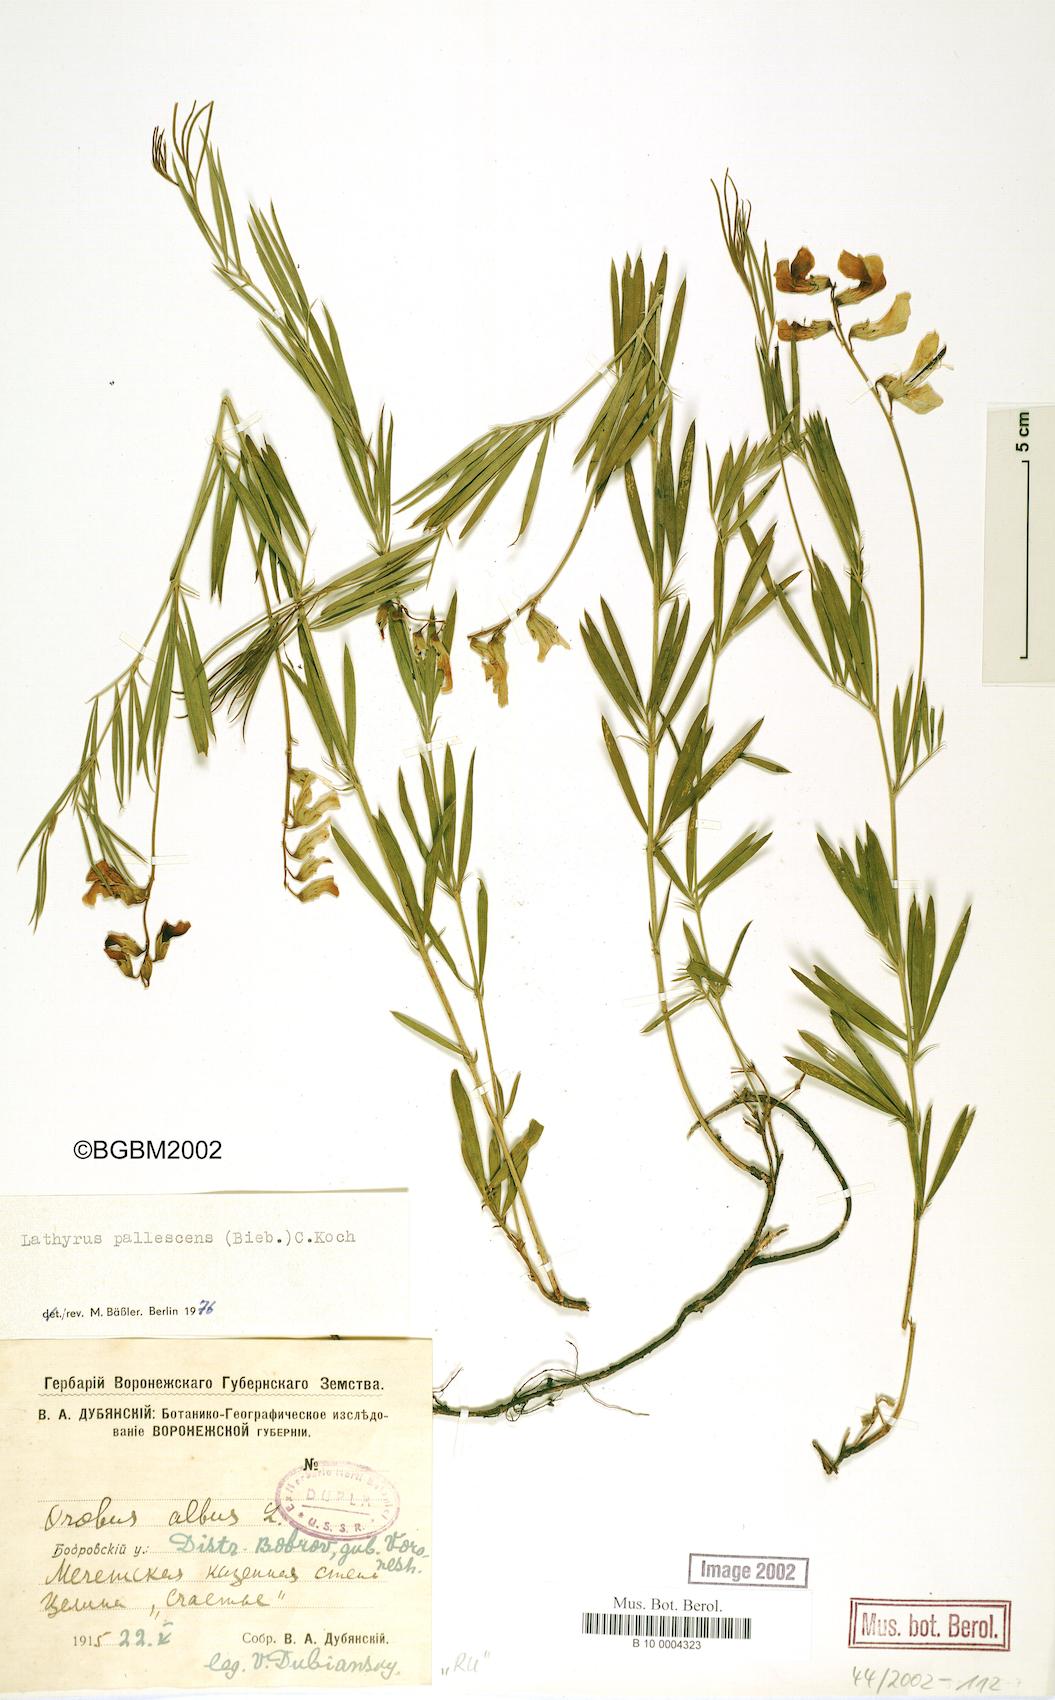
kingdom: Plantae
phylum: Tracheophyta
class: Magnoliopsida
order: Fabales
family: Fabaceae
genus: Lathyrus
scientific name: Lathyrus pallescens
